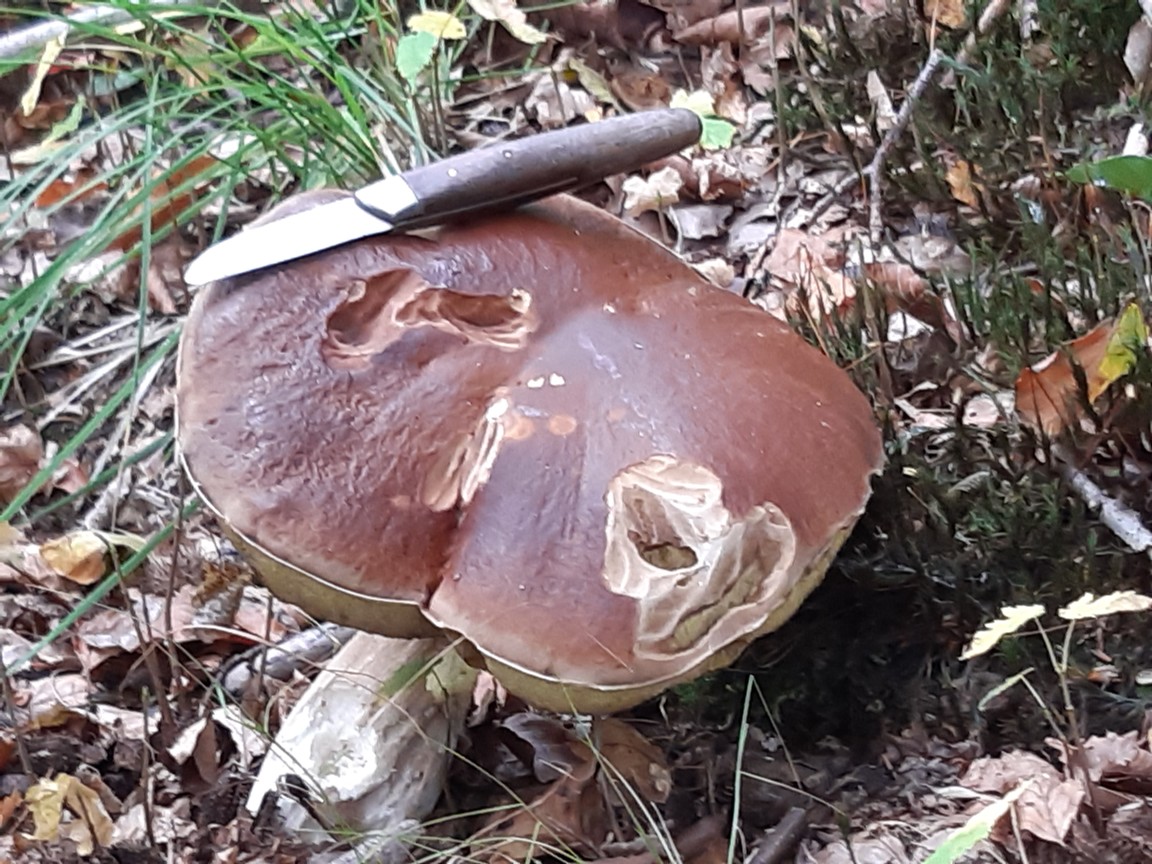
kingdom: Fungi
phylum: Basidiomycota
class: Agaricomycetes
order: Boletales
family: Boletaceae
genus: Boletus
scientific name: Boletus edulis
